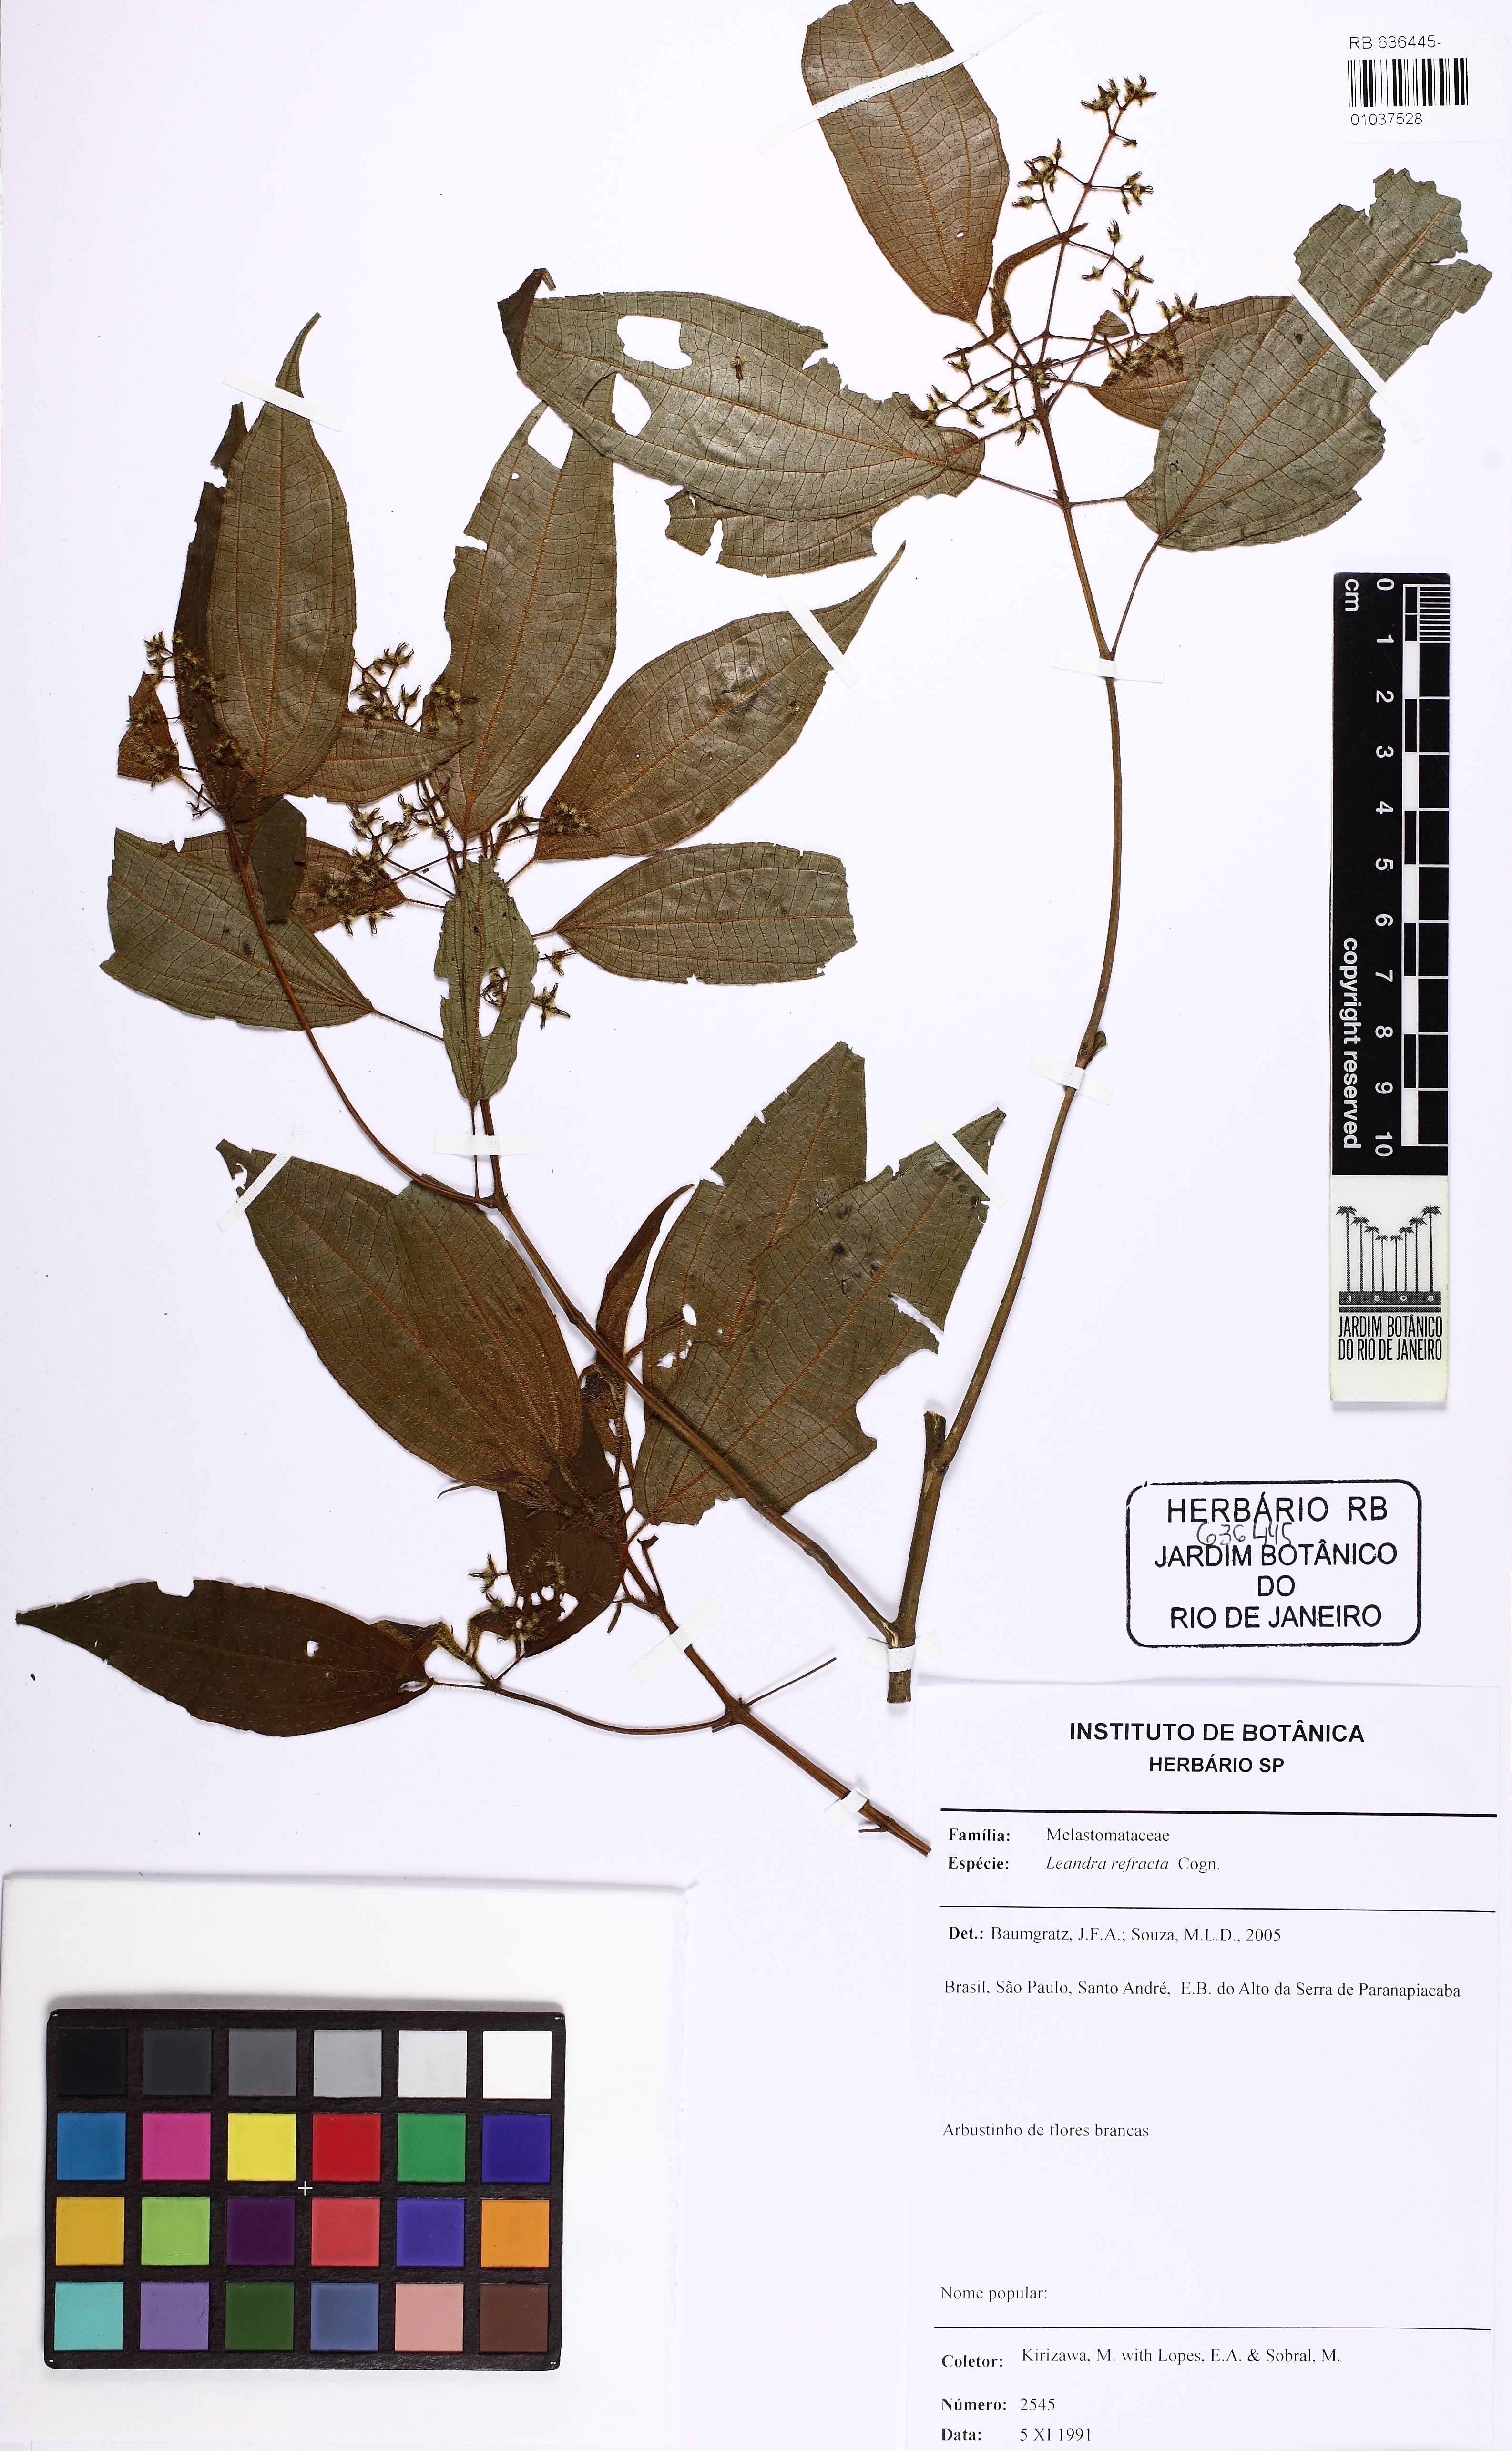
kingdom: Plantae
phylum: Tracheophyta
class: Magnoliopsida
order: Myrtales
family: Melastomataceae
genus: Miconia
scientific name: Miconia refracta
